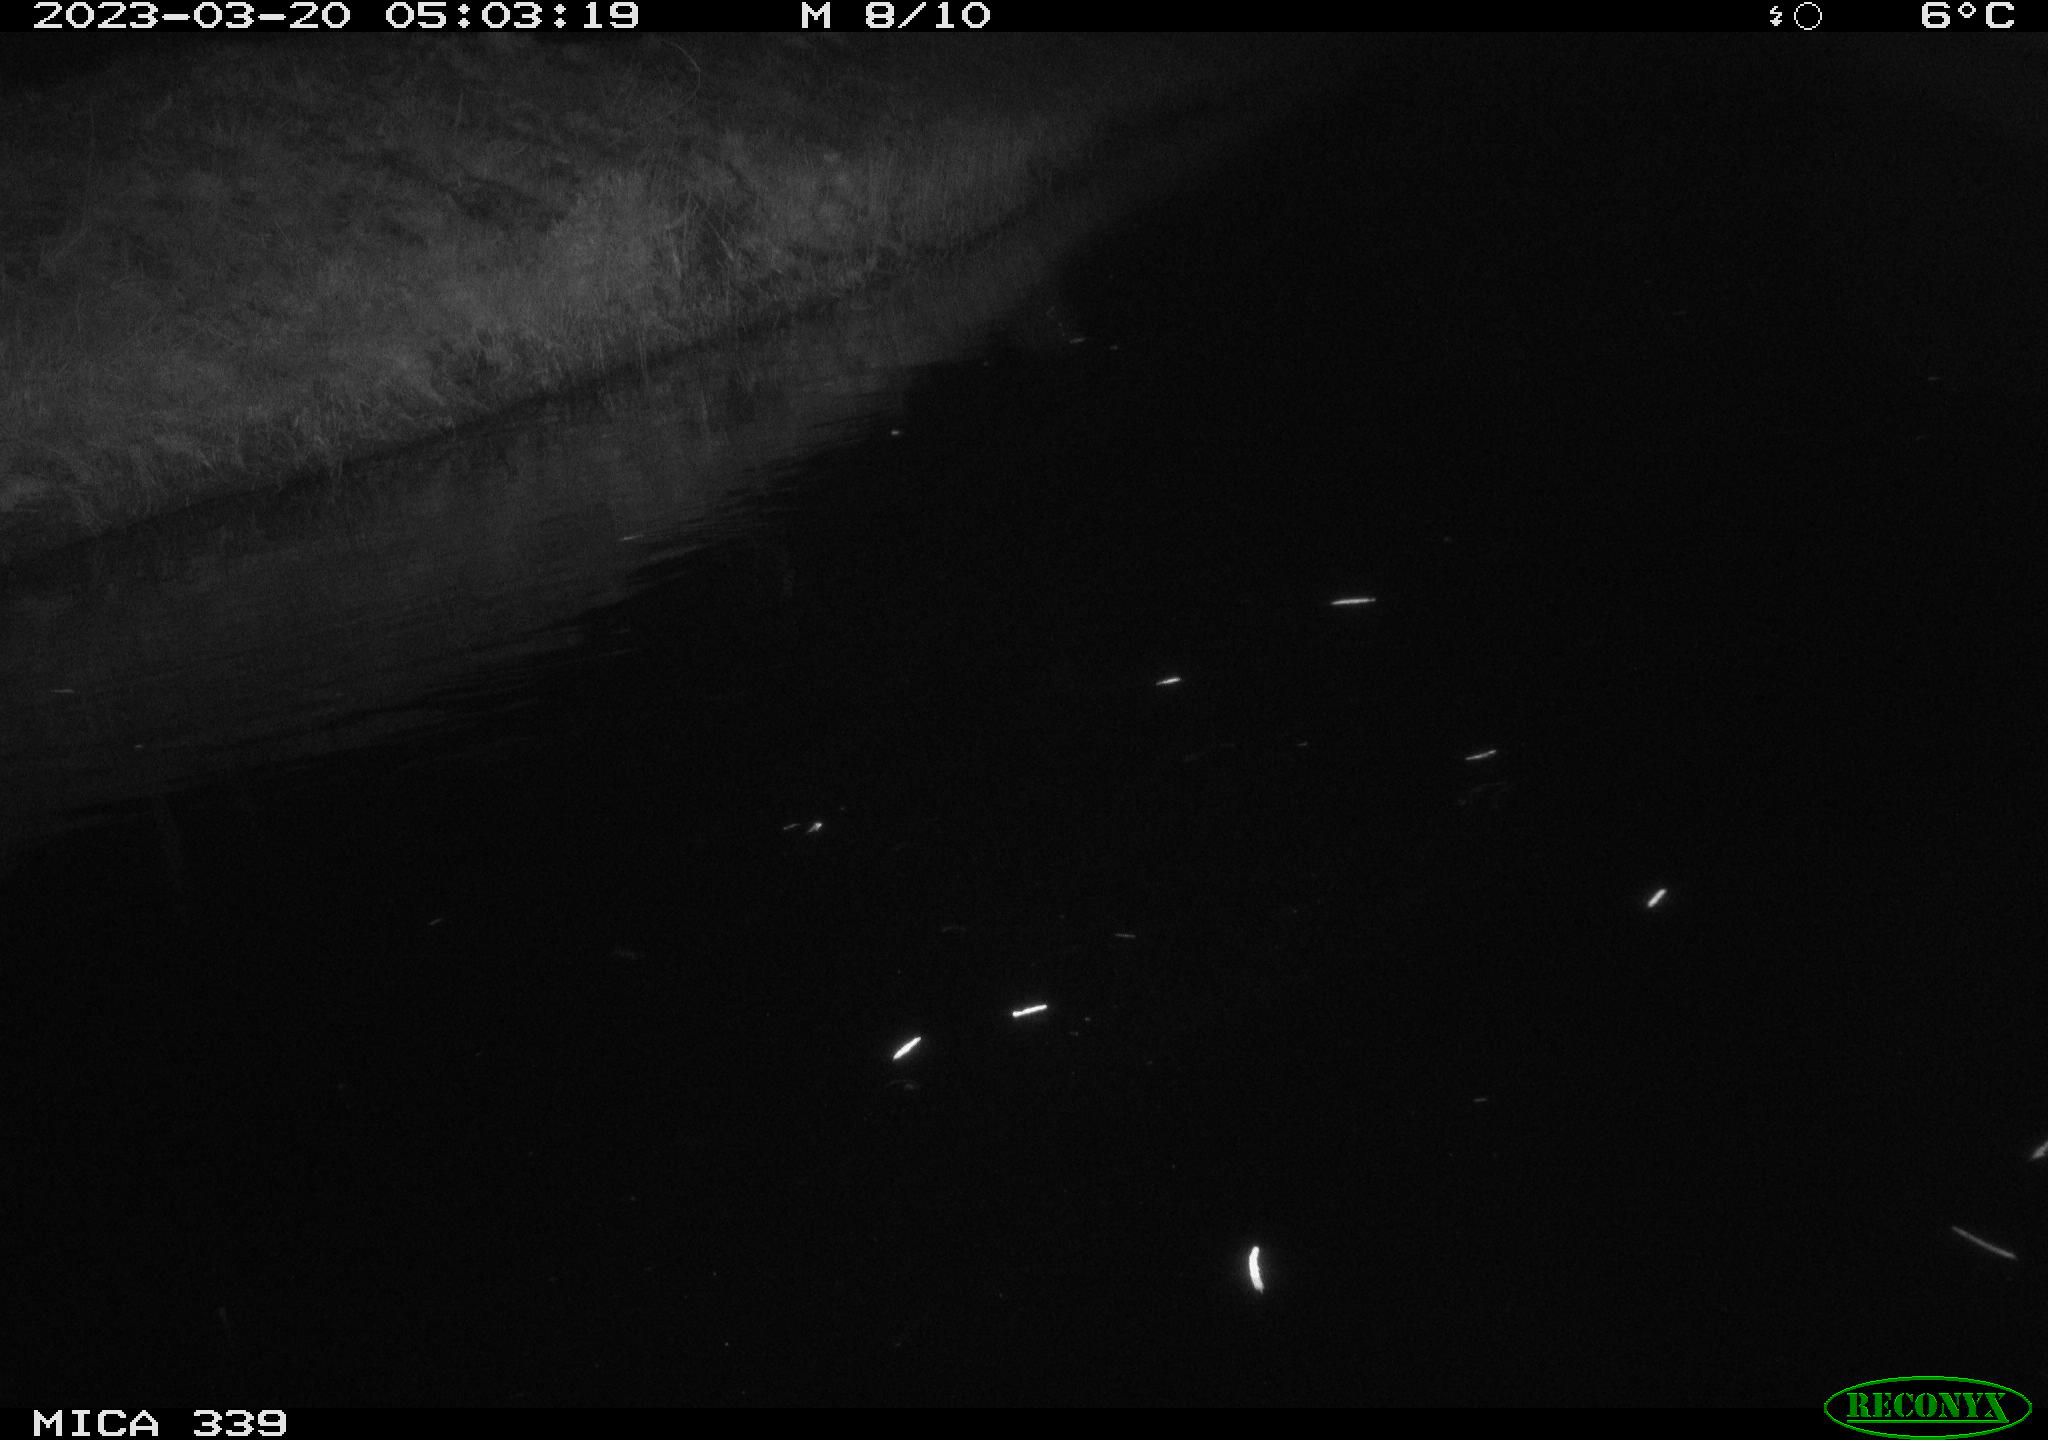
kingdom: Animalia
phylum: Chordata
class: Aves
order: Pelecaniformes
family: Ardeidae
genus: Ardea
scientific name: Ardea cinerea
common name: Grey heron
